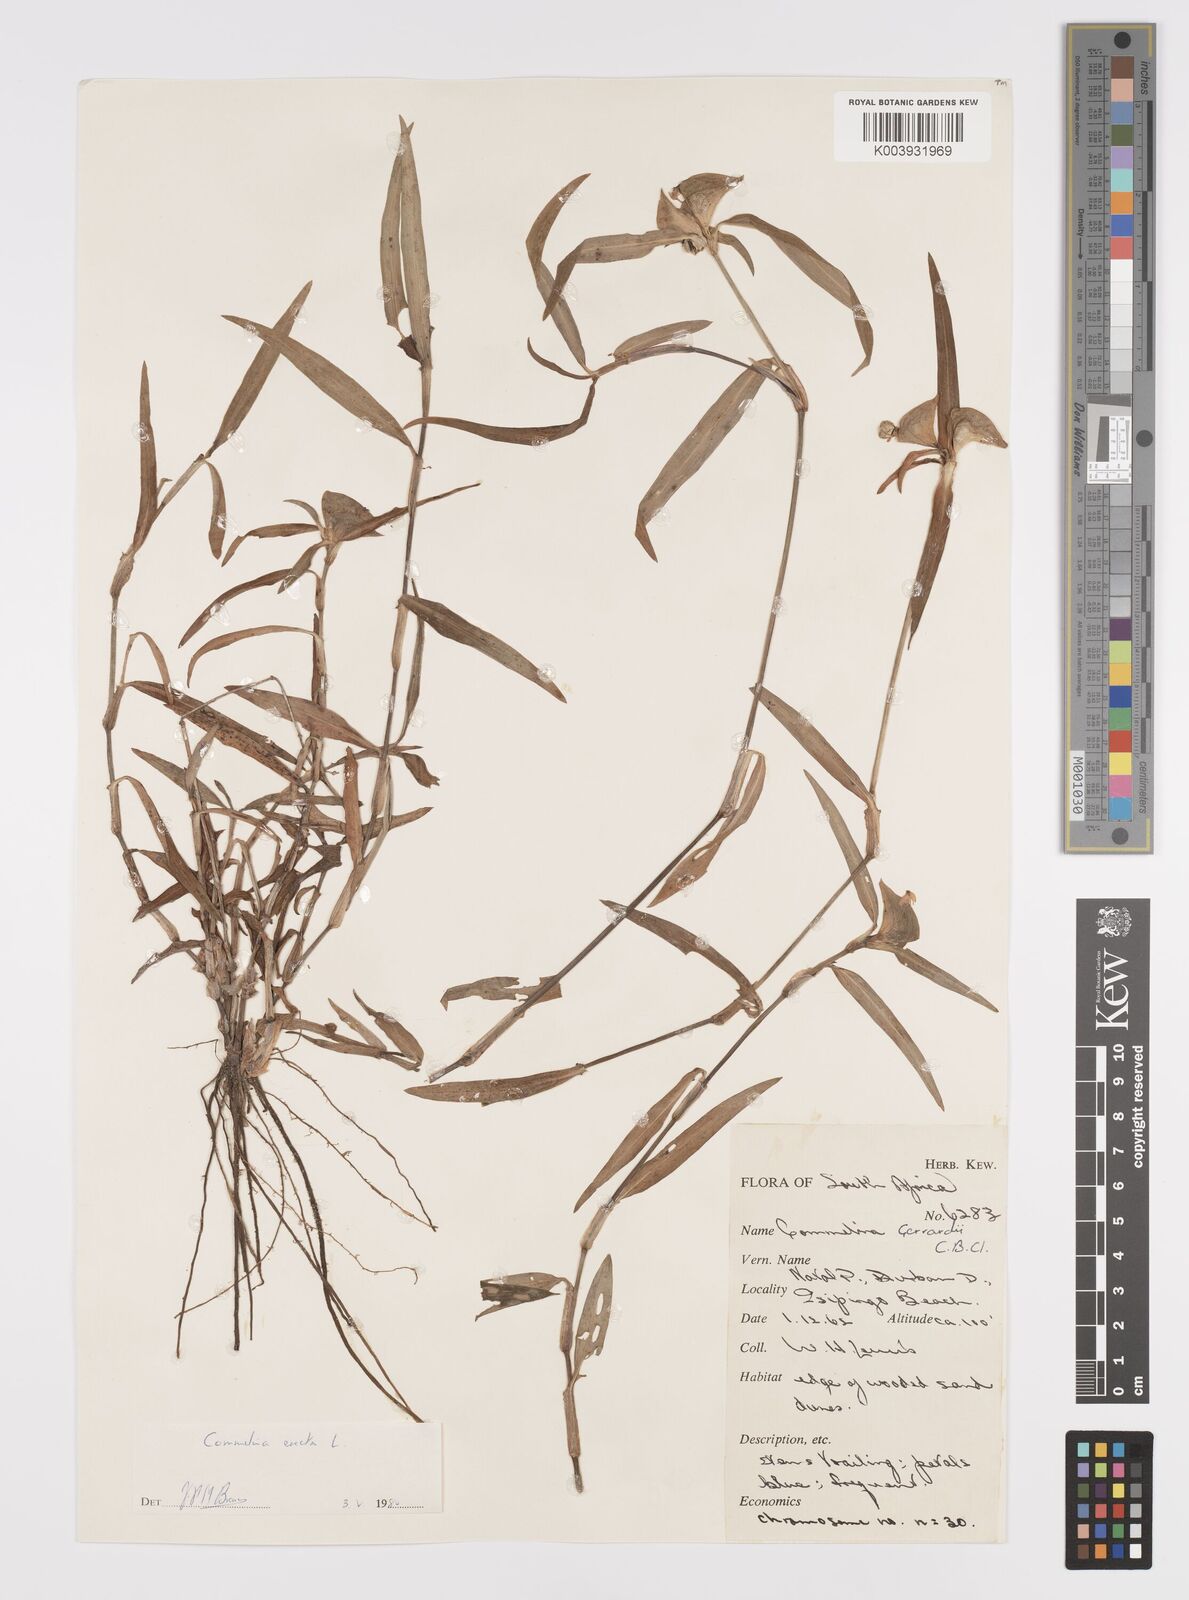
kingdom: Plantae
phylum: Tracheophyta
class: Liliopsida
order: Commelinales
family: Commelinaceae
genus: Commelina
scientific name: Commelina erecta
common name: Blousel blommetjie
